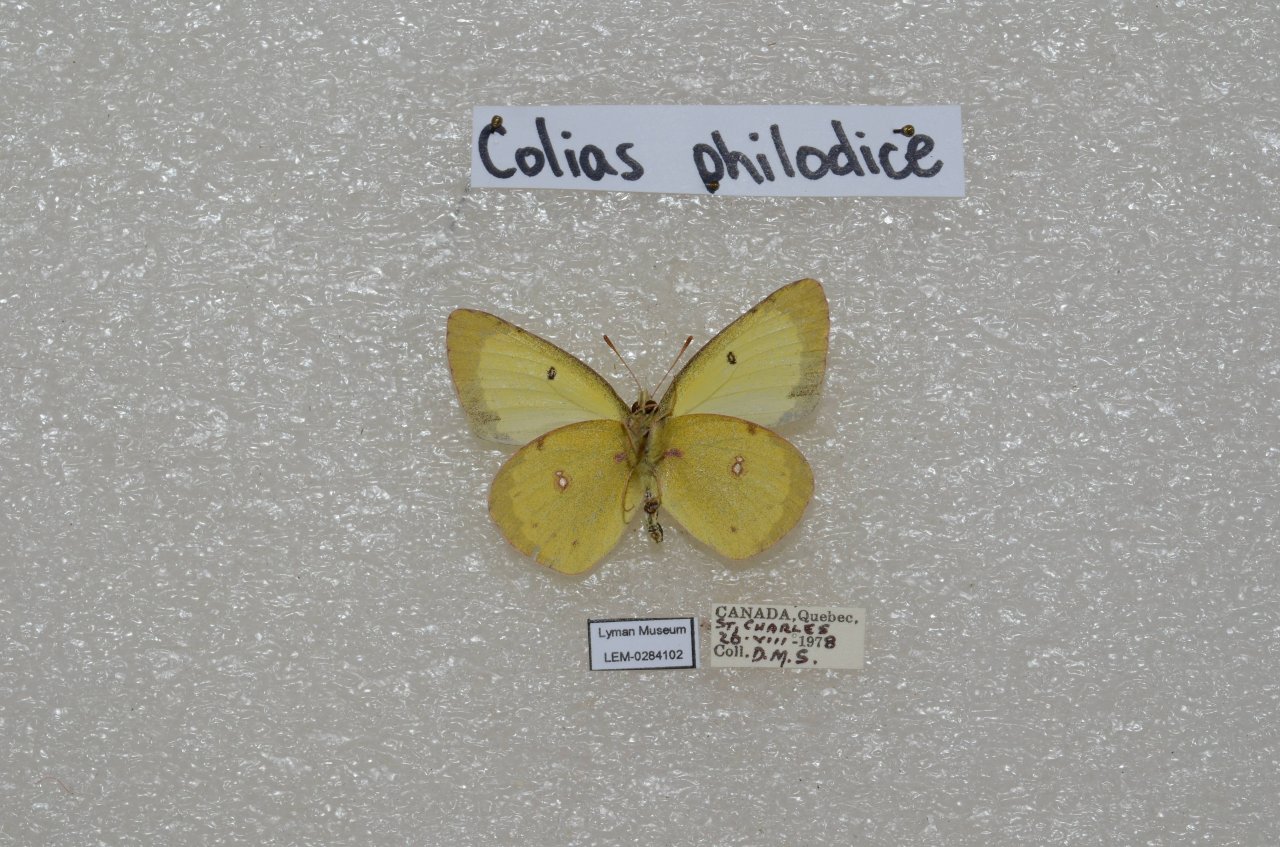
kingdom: Animalia
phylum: Arthropoda
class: Insecta
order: Lepidoptera
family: Pieridae
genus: Colias
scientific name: Colias philodice
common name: Clouded Sulphur
